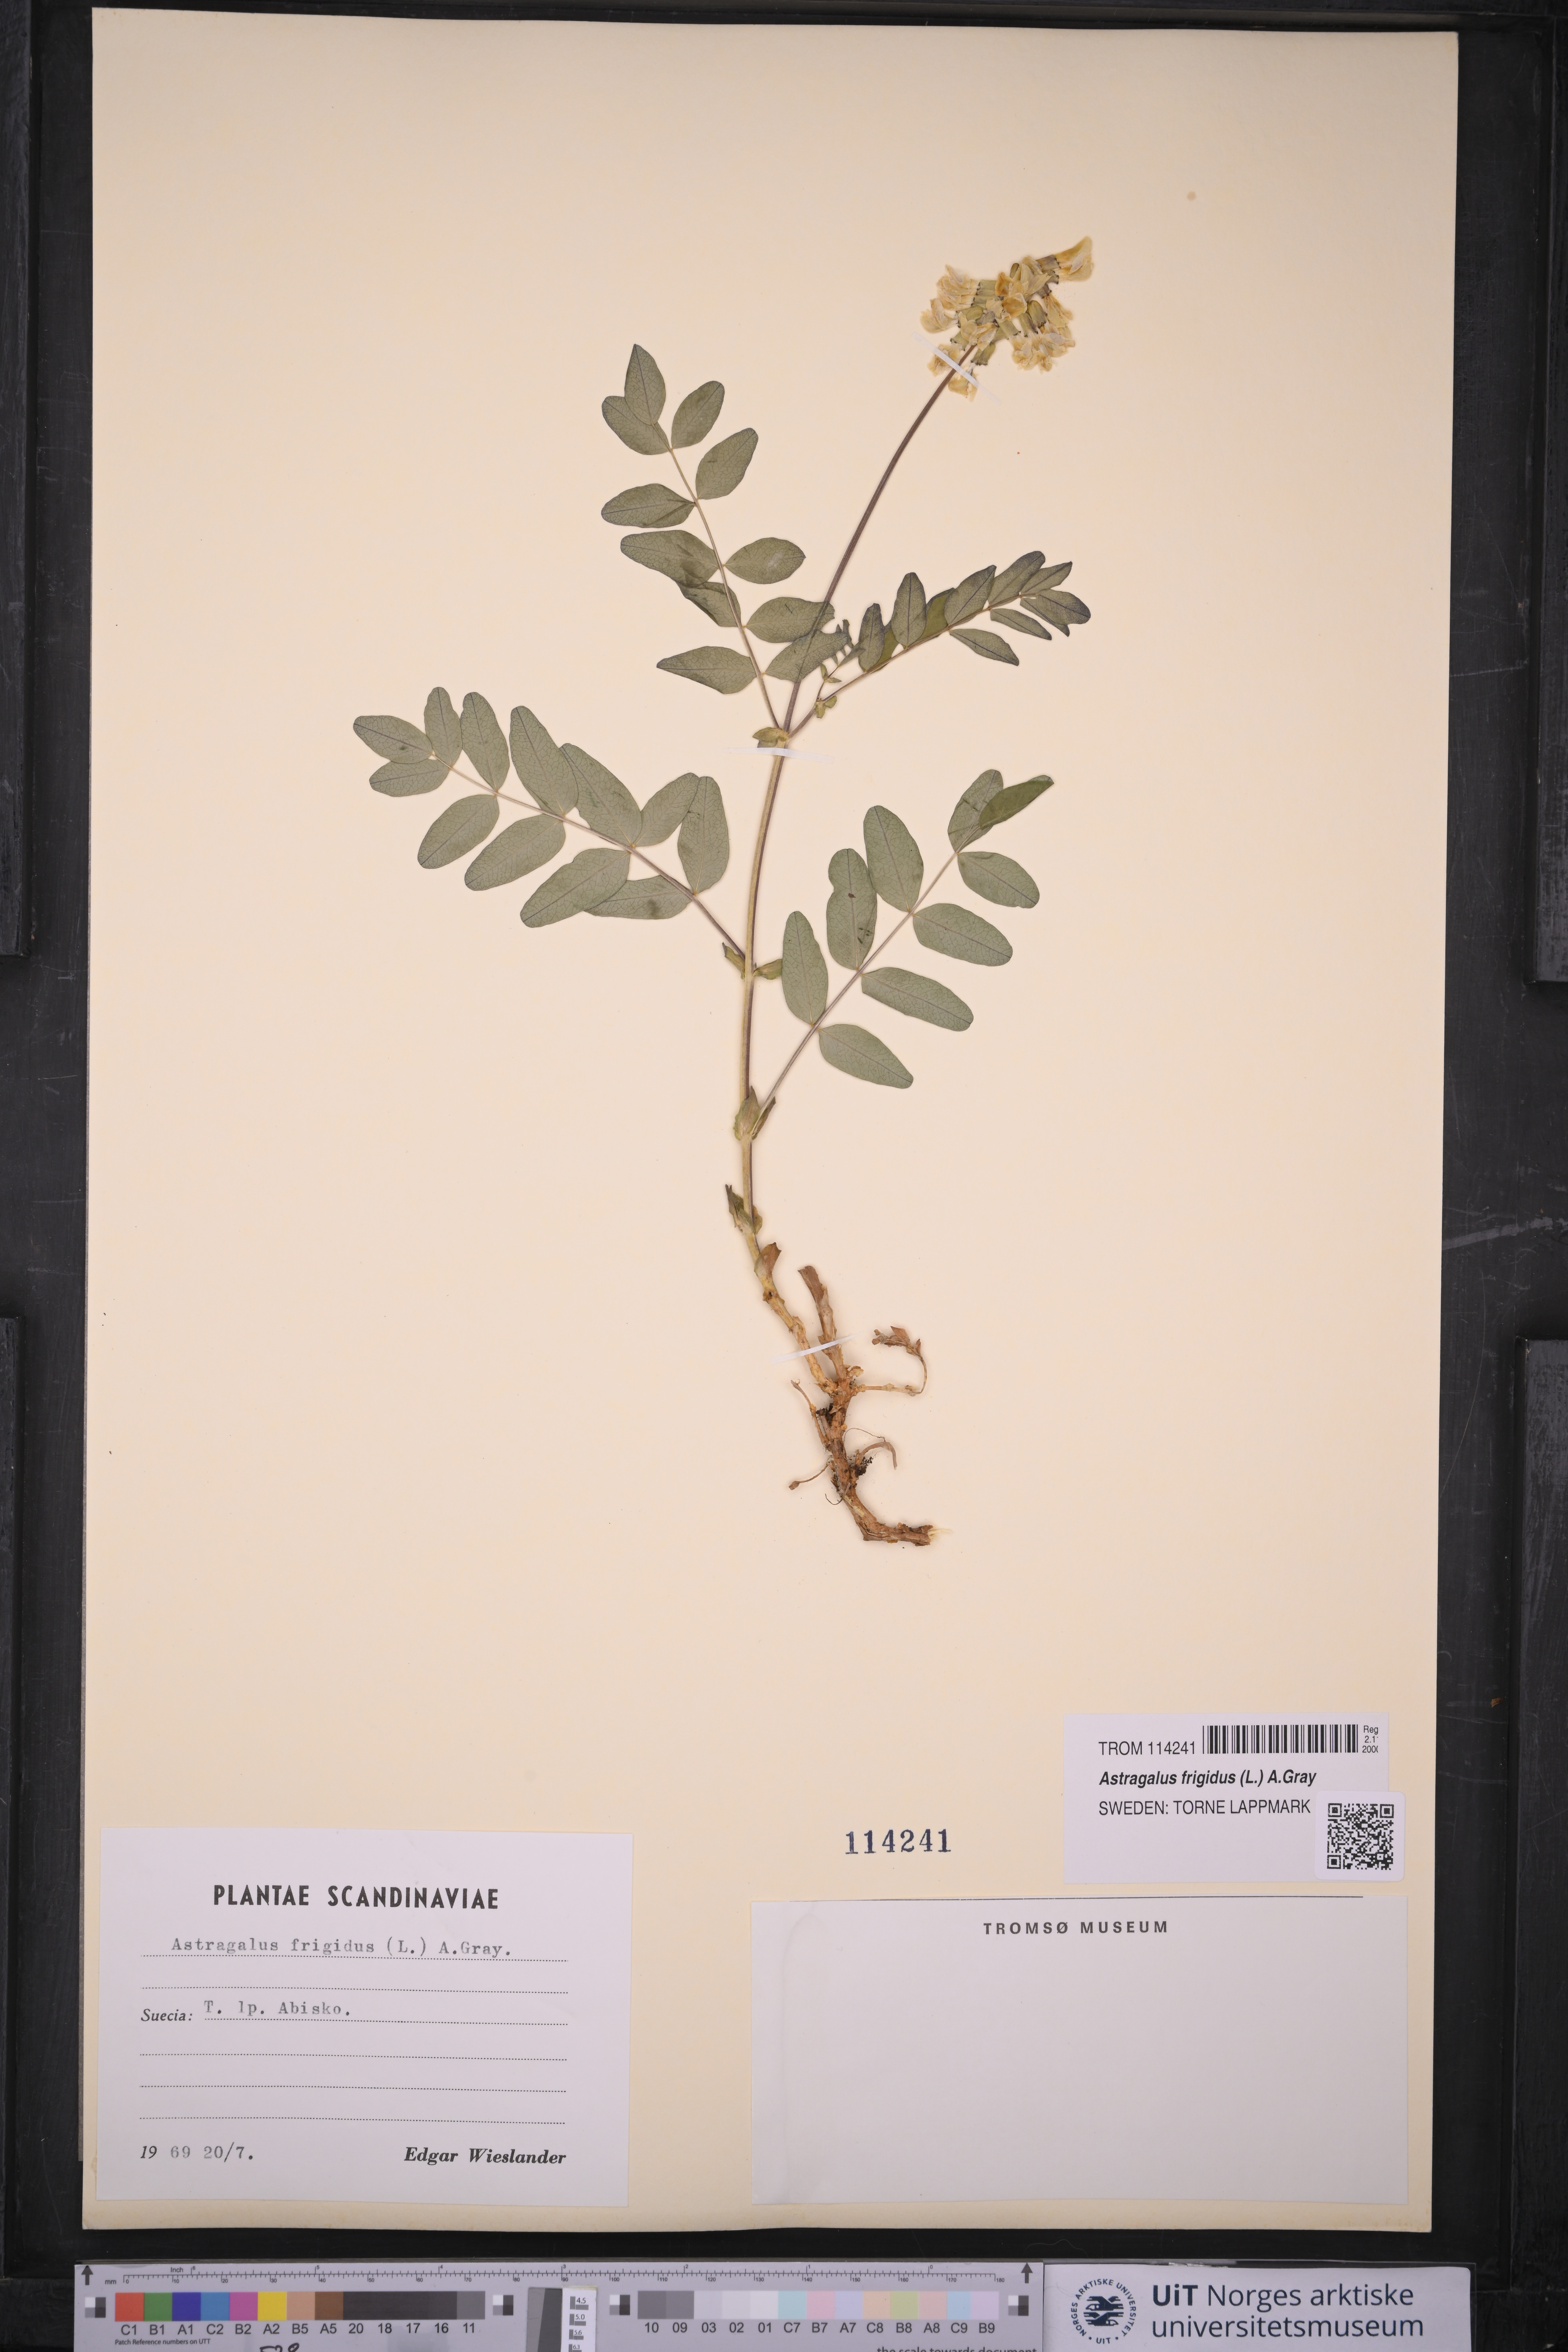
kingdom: Plantae
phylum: Tracheophyta
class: Magnoliopsida
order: Fabales
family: Fabaceae
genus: Astragalus
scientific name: Astragalus frigidus
